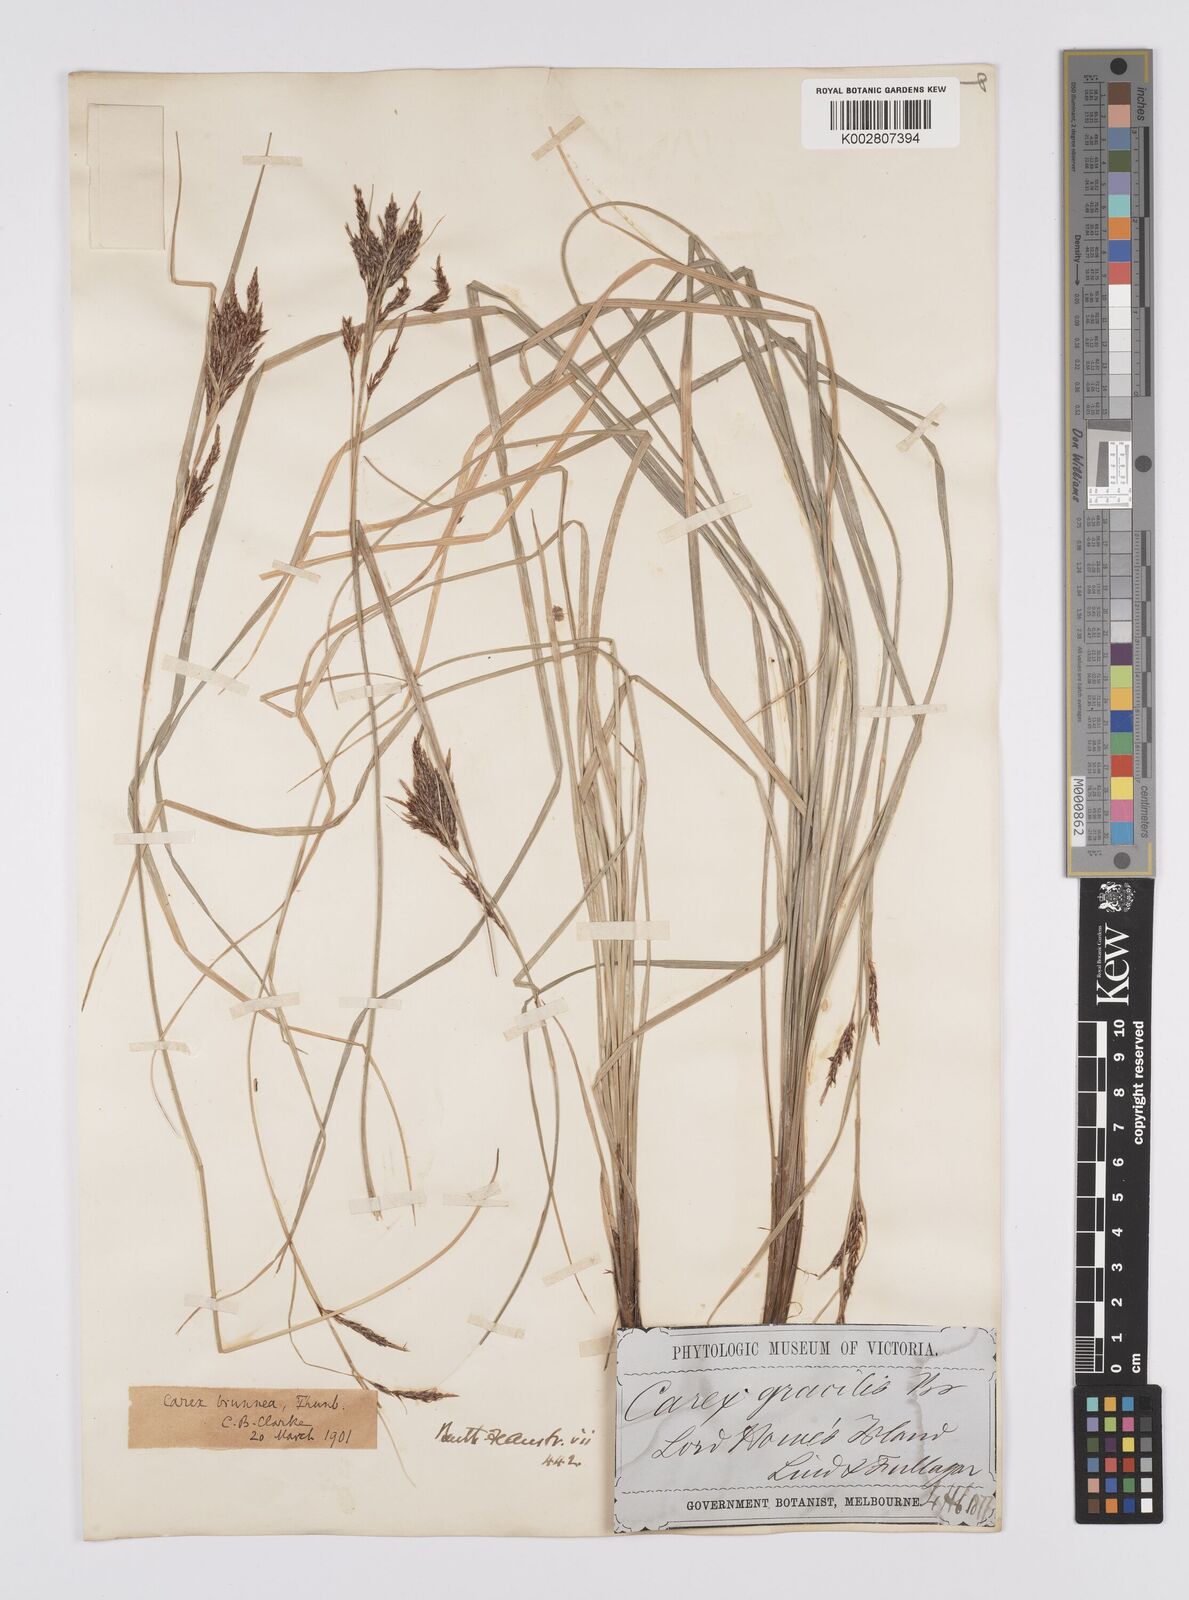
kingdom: Plantae
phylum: Tracheophyta
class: Liliopsida
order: Poales
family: Cyperaceae
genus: Carex
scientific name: Carex hattoriana
